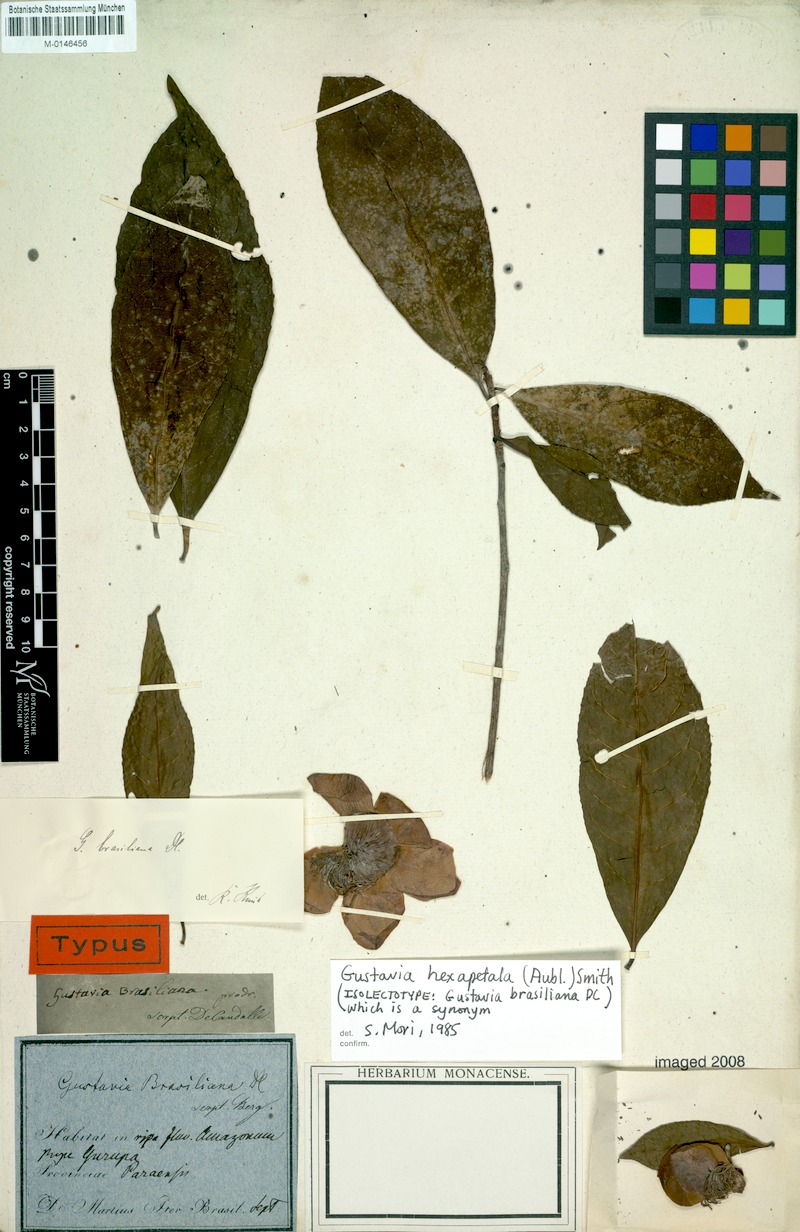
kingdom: Plantae
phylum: Tracheophyta
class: Magnoliopsida
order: Ericales
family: Lecythidaceae
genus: Gustavia
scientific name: Gustavia hexapetala
